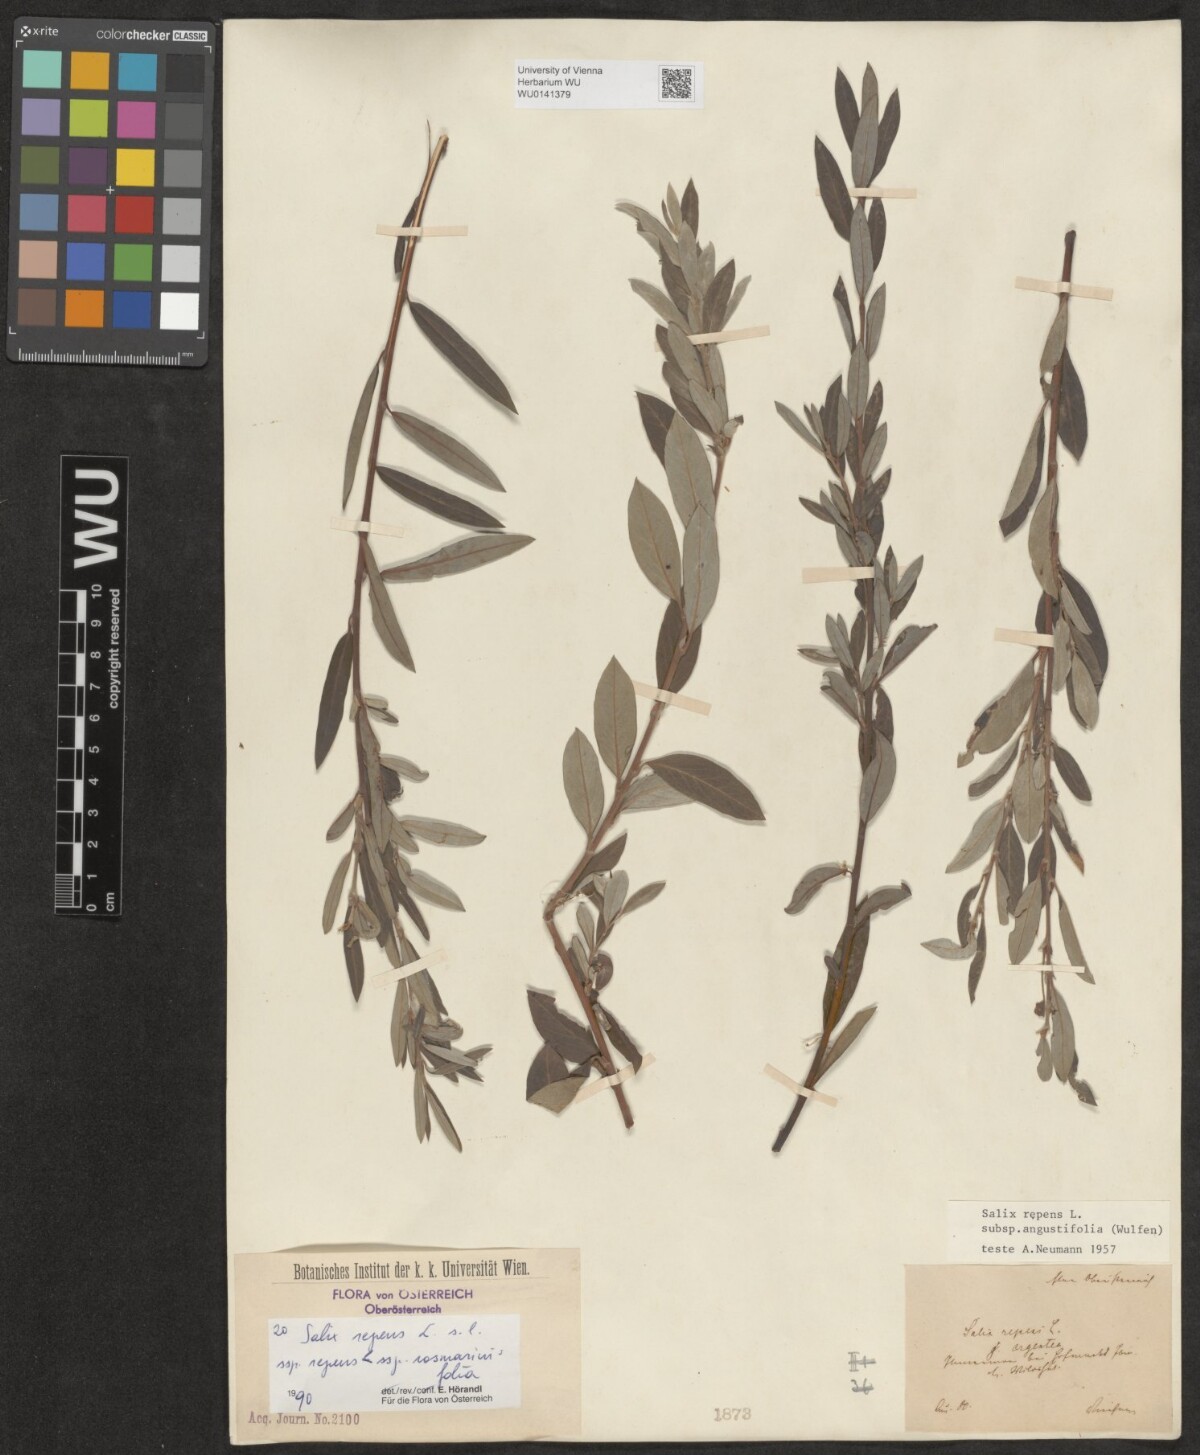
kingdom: Plantae
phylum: Tracheophyta
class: Magnoliopsida
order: Malpighiales
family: Salicaceae
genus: Salix
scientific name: Salix repens
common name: Creeping willow
